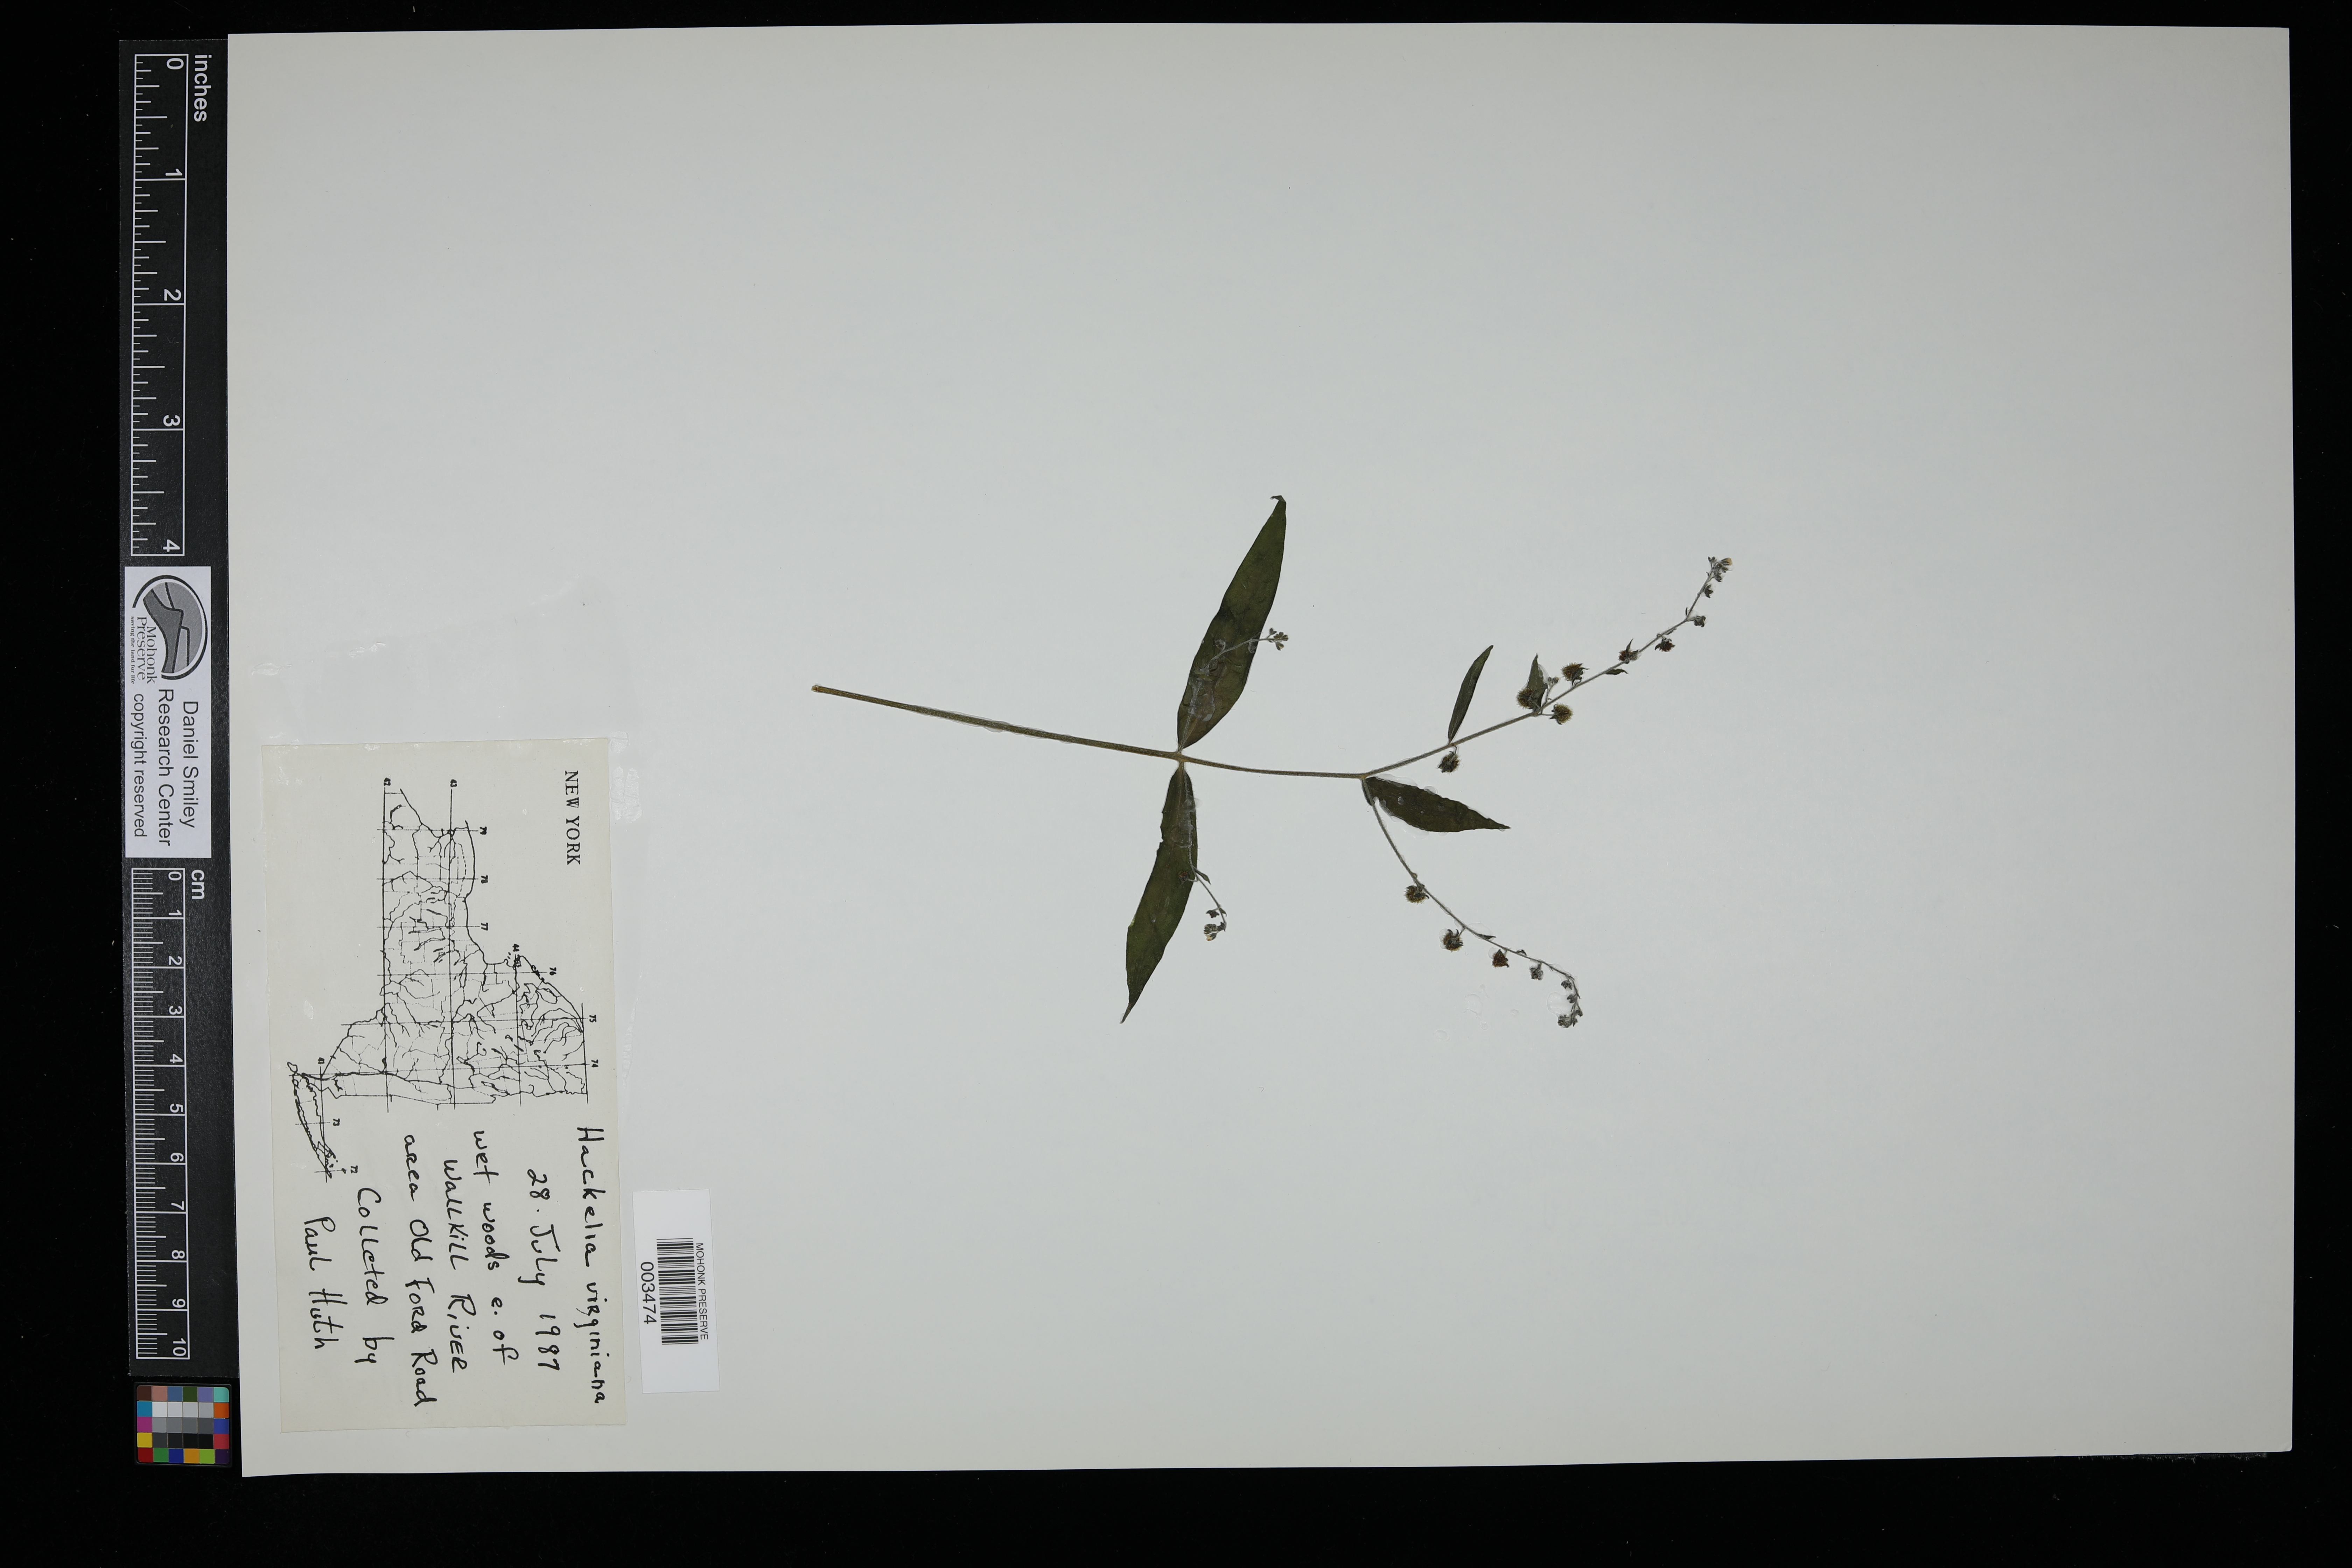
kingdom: Plantae
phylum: Tracheophyta
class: Magnoliopsida
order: Boraginales
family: Boraginaceae
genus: Hackelia
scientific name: Hackelia virginiana
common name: Beggar's-lice
